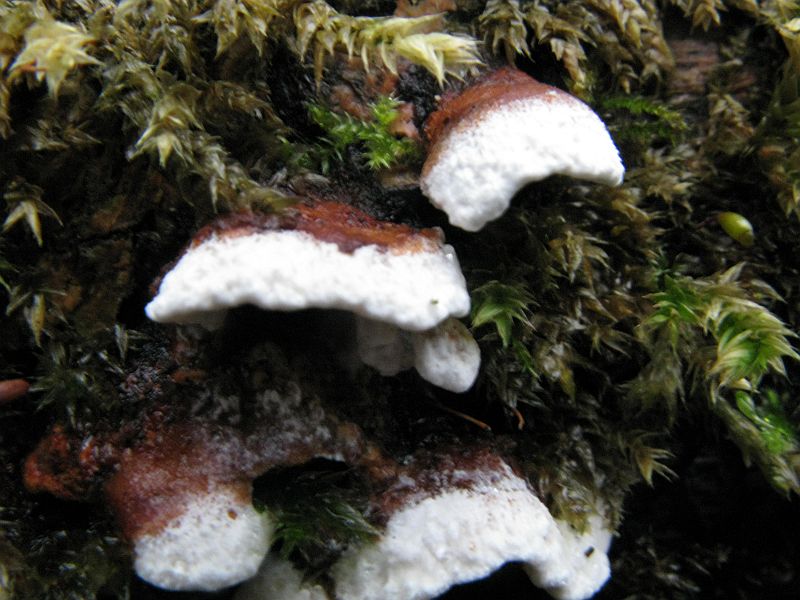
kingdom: Fungi
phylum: Basidiomycota
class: Agaricomycetes
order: Polyporales
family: Ischnodermataceae
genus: Ischnoderma
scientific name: Ischnoderma benzoinum
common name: gran-tjæreporesvamp
